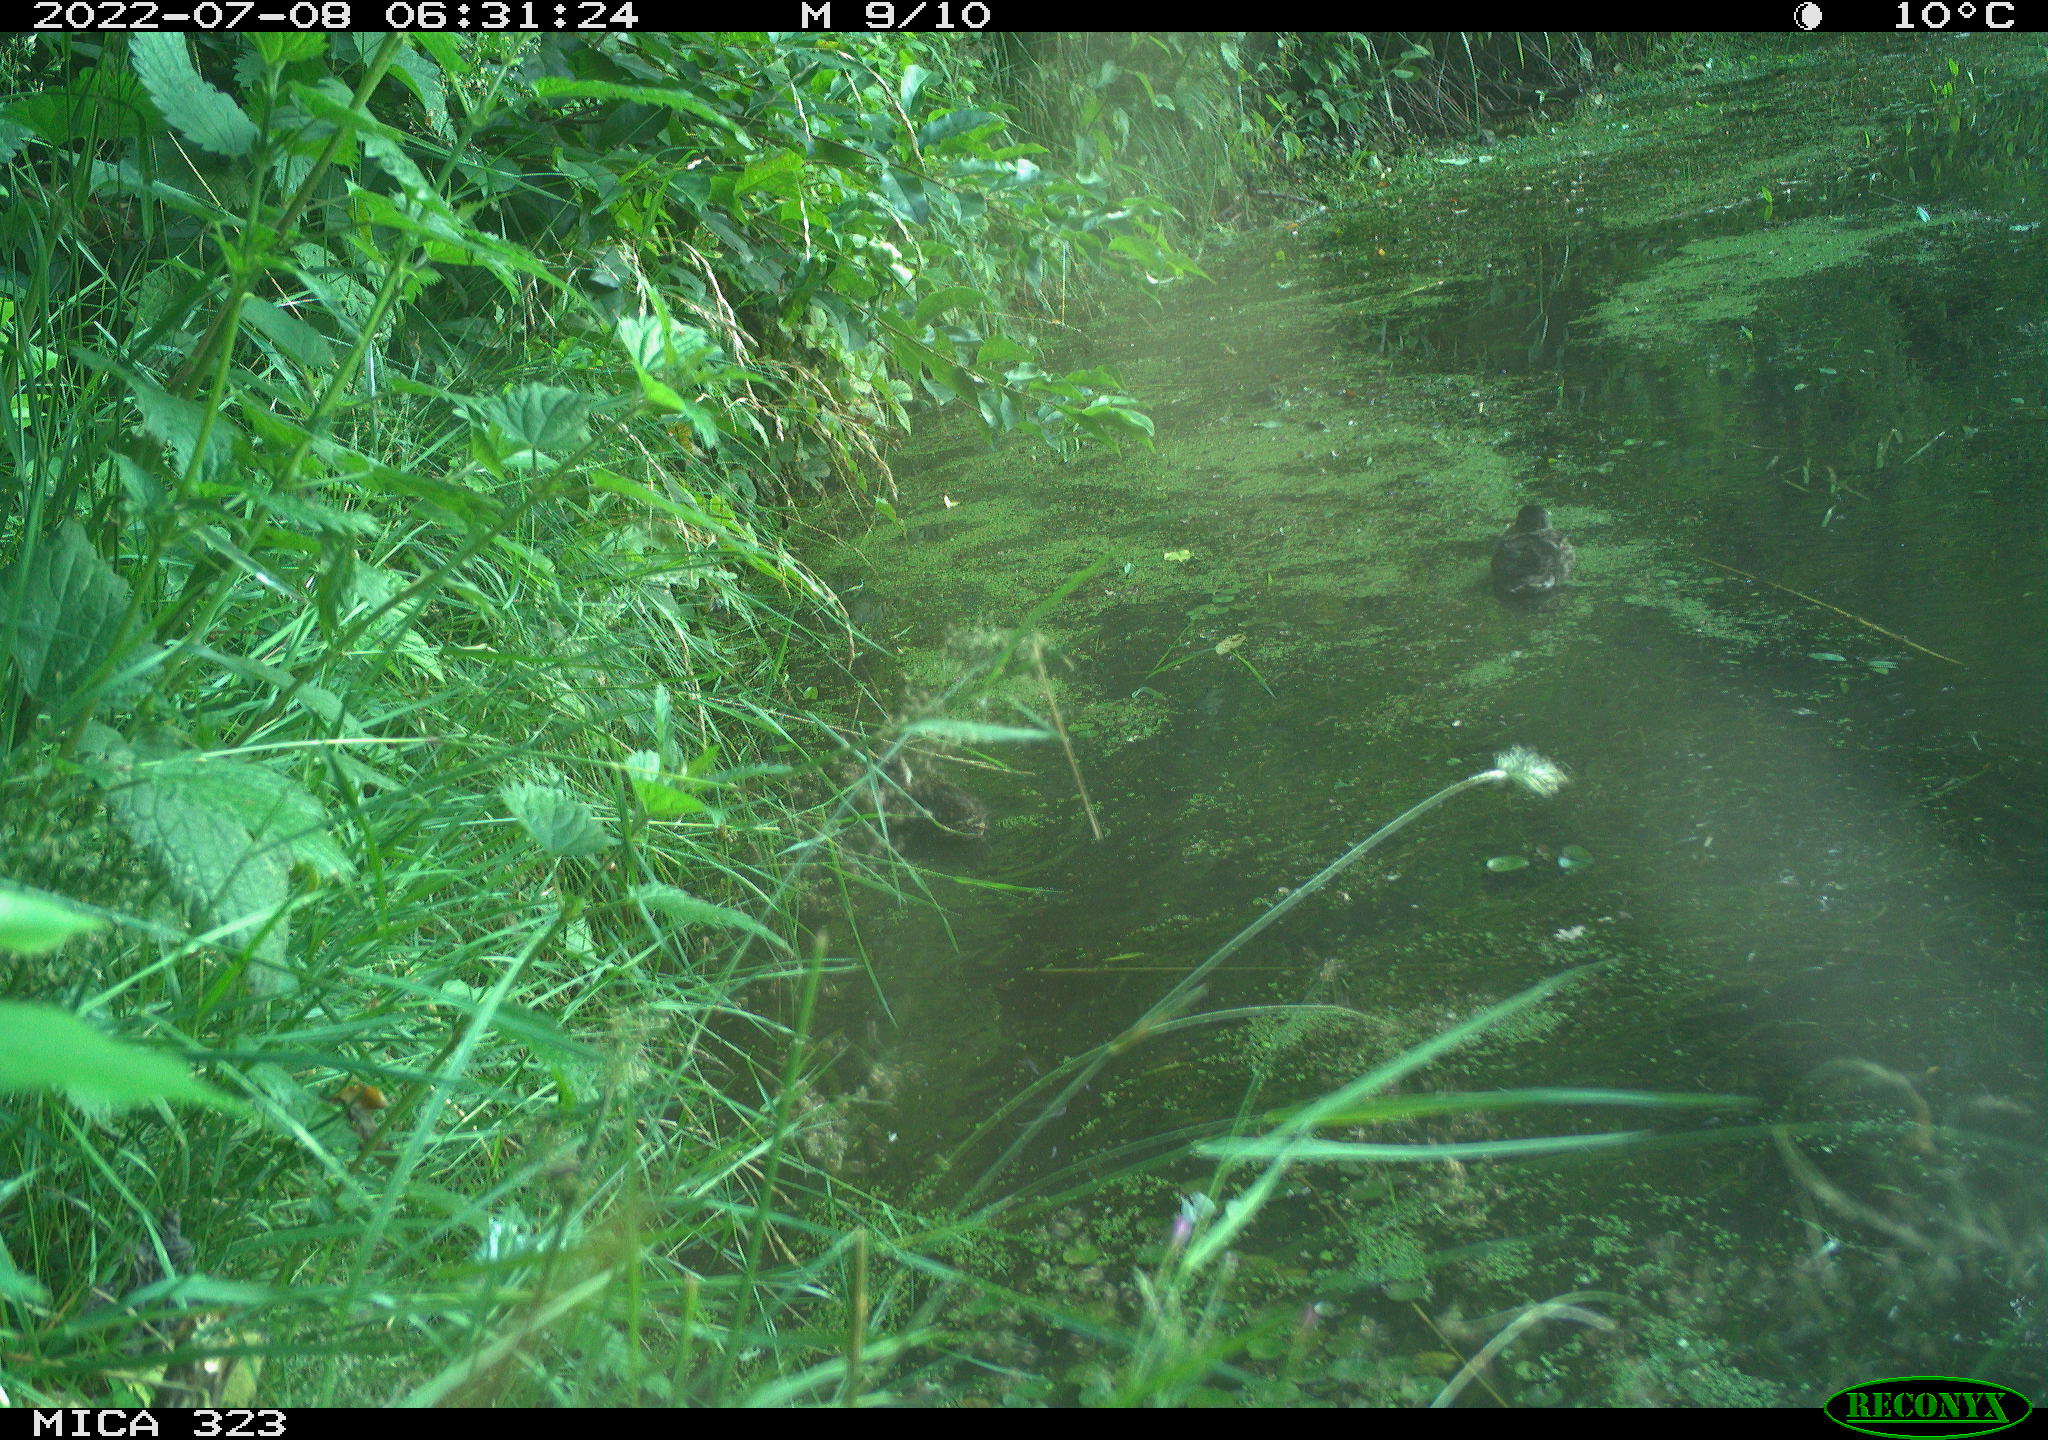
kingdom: Animalia
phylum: Chordata
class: Aves
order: Anseriformes
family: Anatidae
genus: Anas
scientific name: Anas
